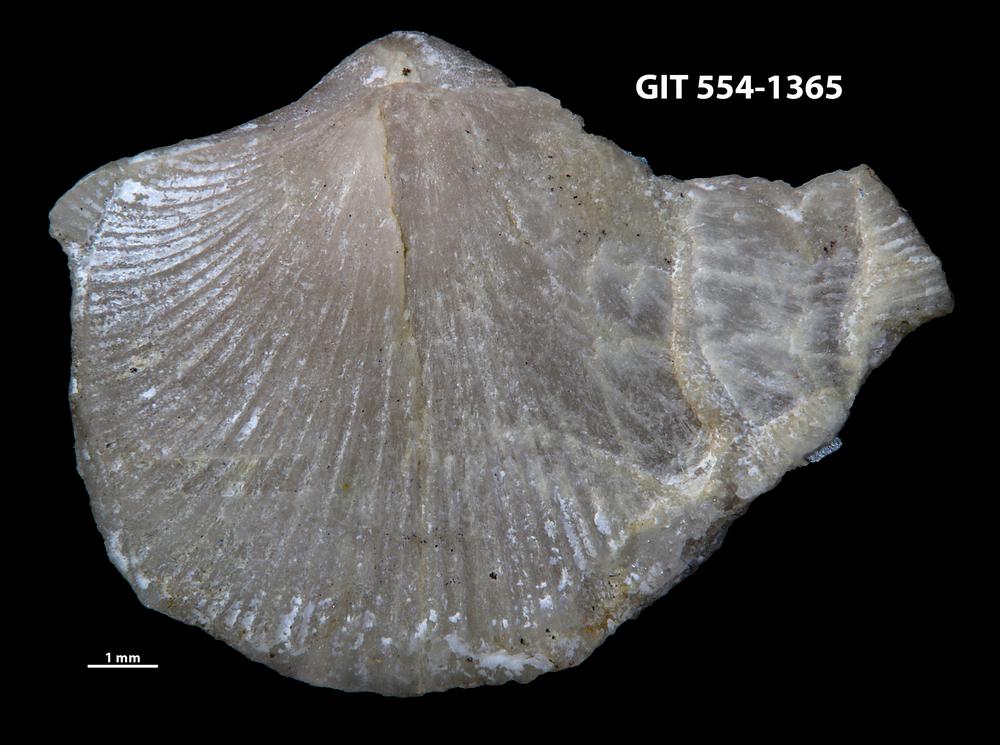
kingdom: Animalia
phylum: Brachiopoda
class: Rhynchonellata
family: Dalmanellidae
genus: Dalmanella
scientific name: Dalmanella cyclica
